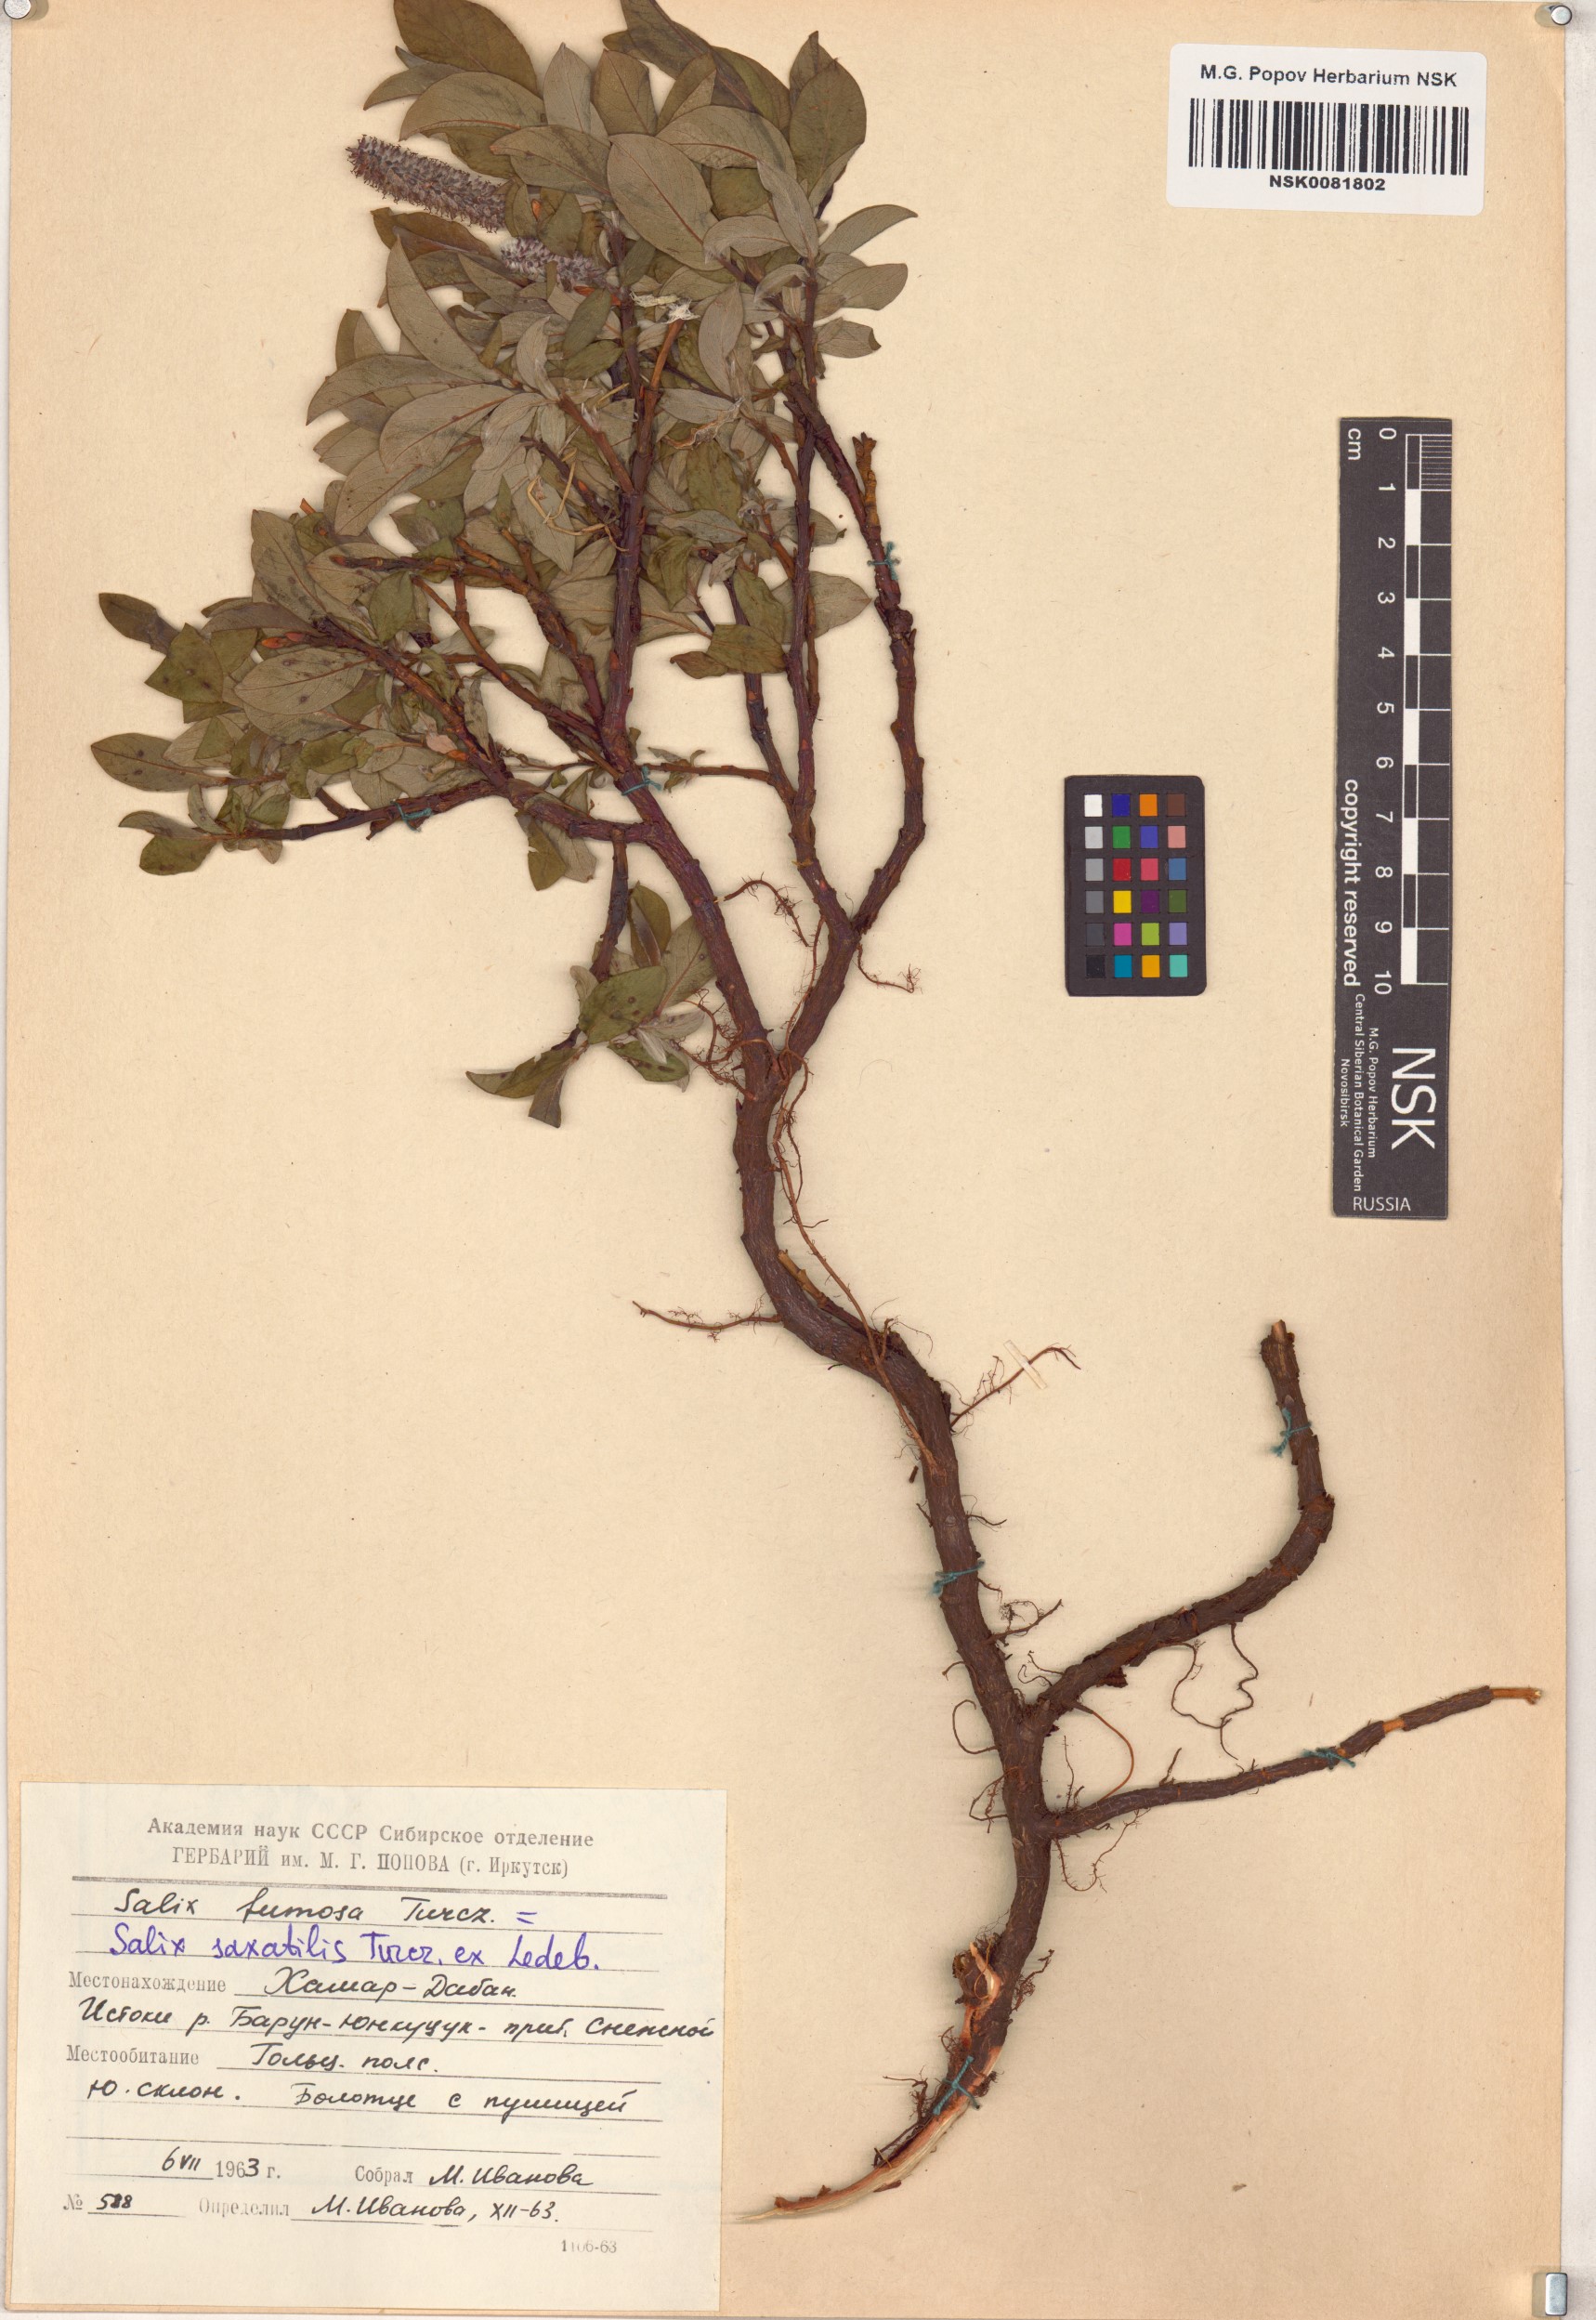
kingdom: Plantae
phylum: Tracheophyta
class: Magnoliopsida
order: Malpighiales
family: Salicaceae
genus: Salix
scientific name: Salix saxatilis
